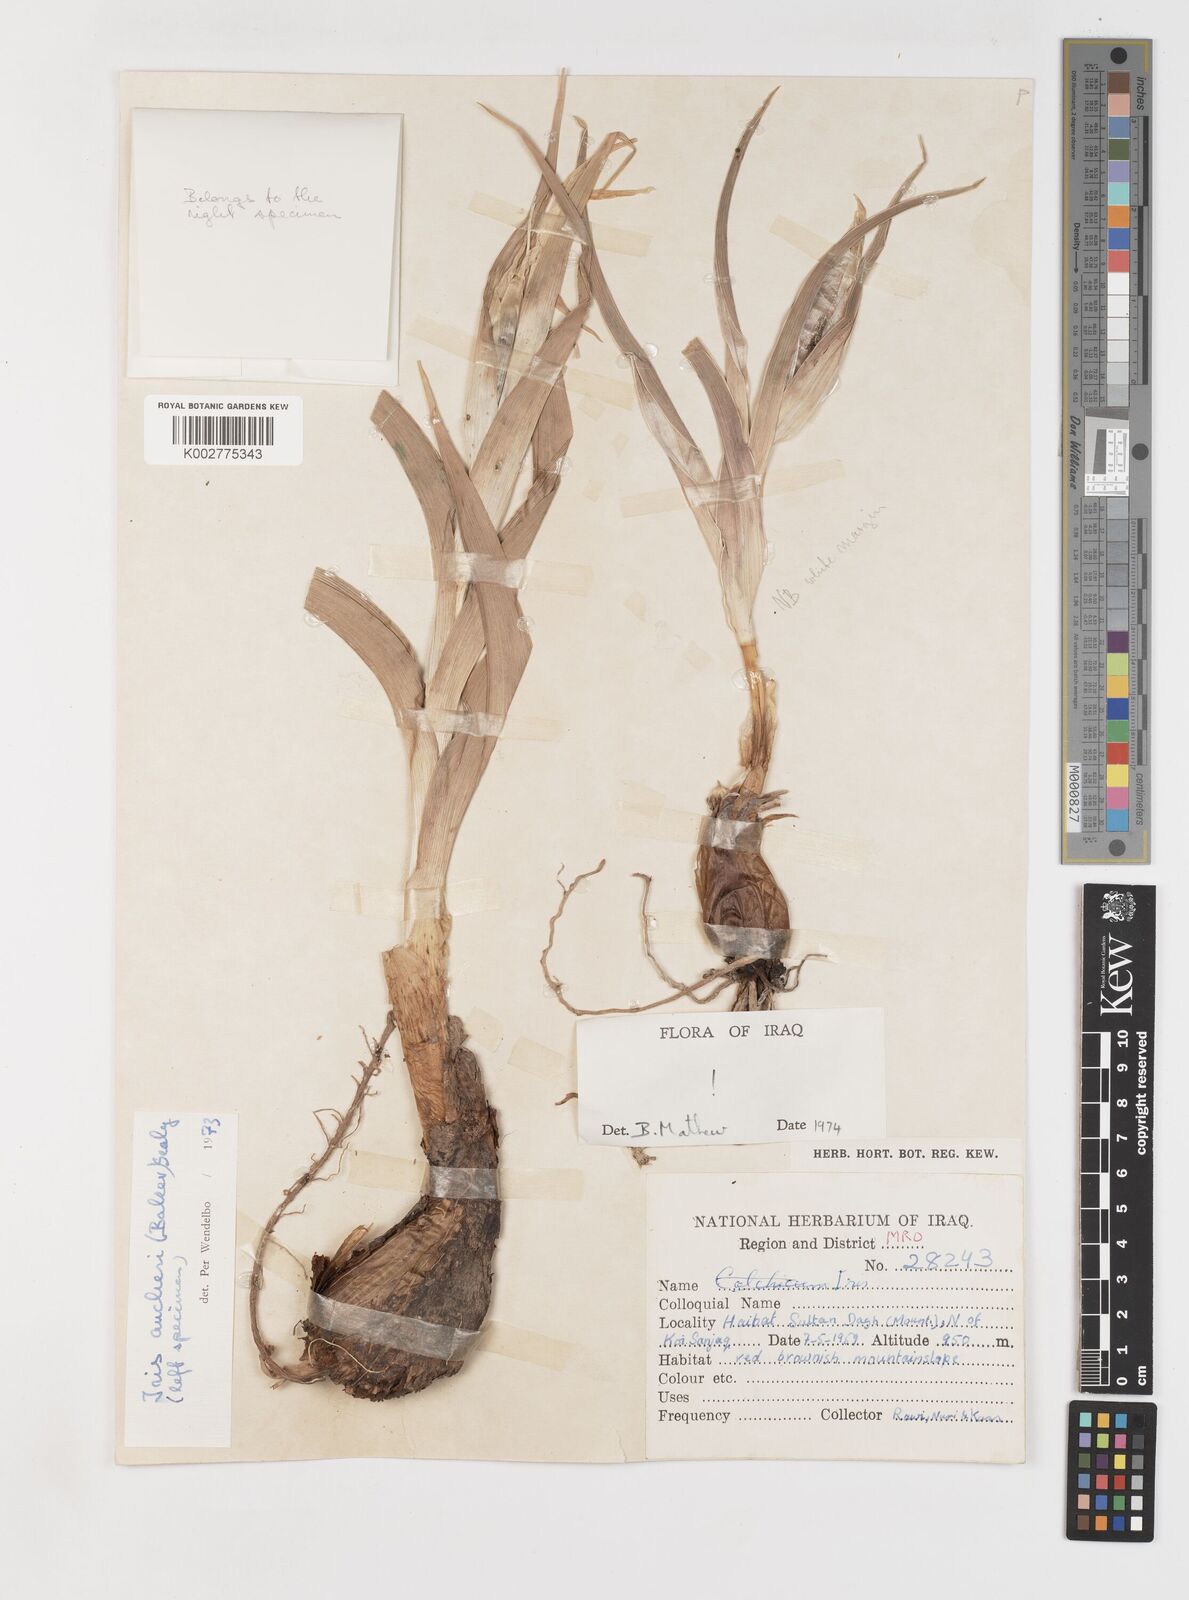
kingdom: Plantae
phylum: Tracheophyta
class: Liliopsida
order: Asparagales
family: Iridaceae
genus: Iris
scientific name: Iris aucheri
